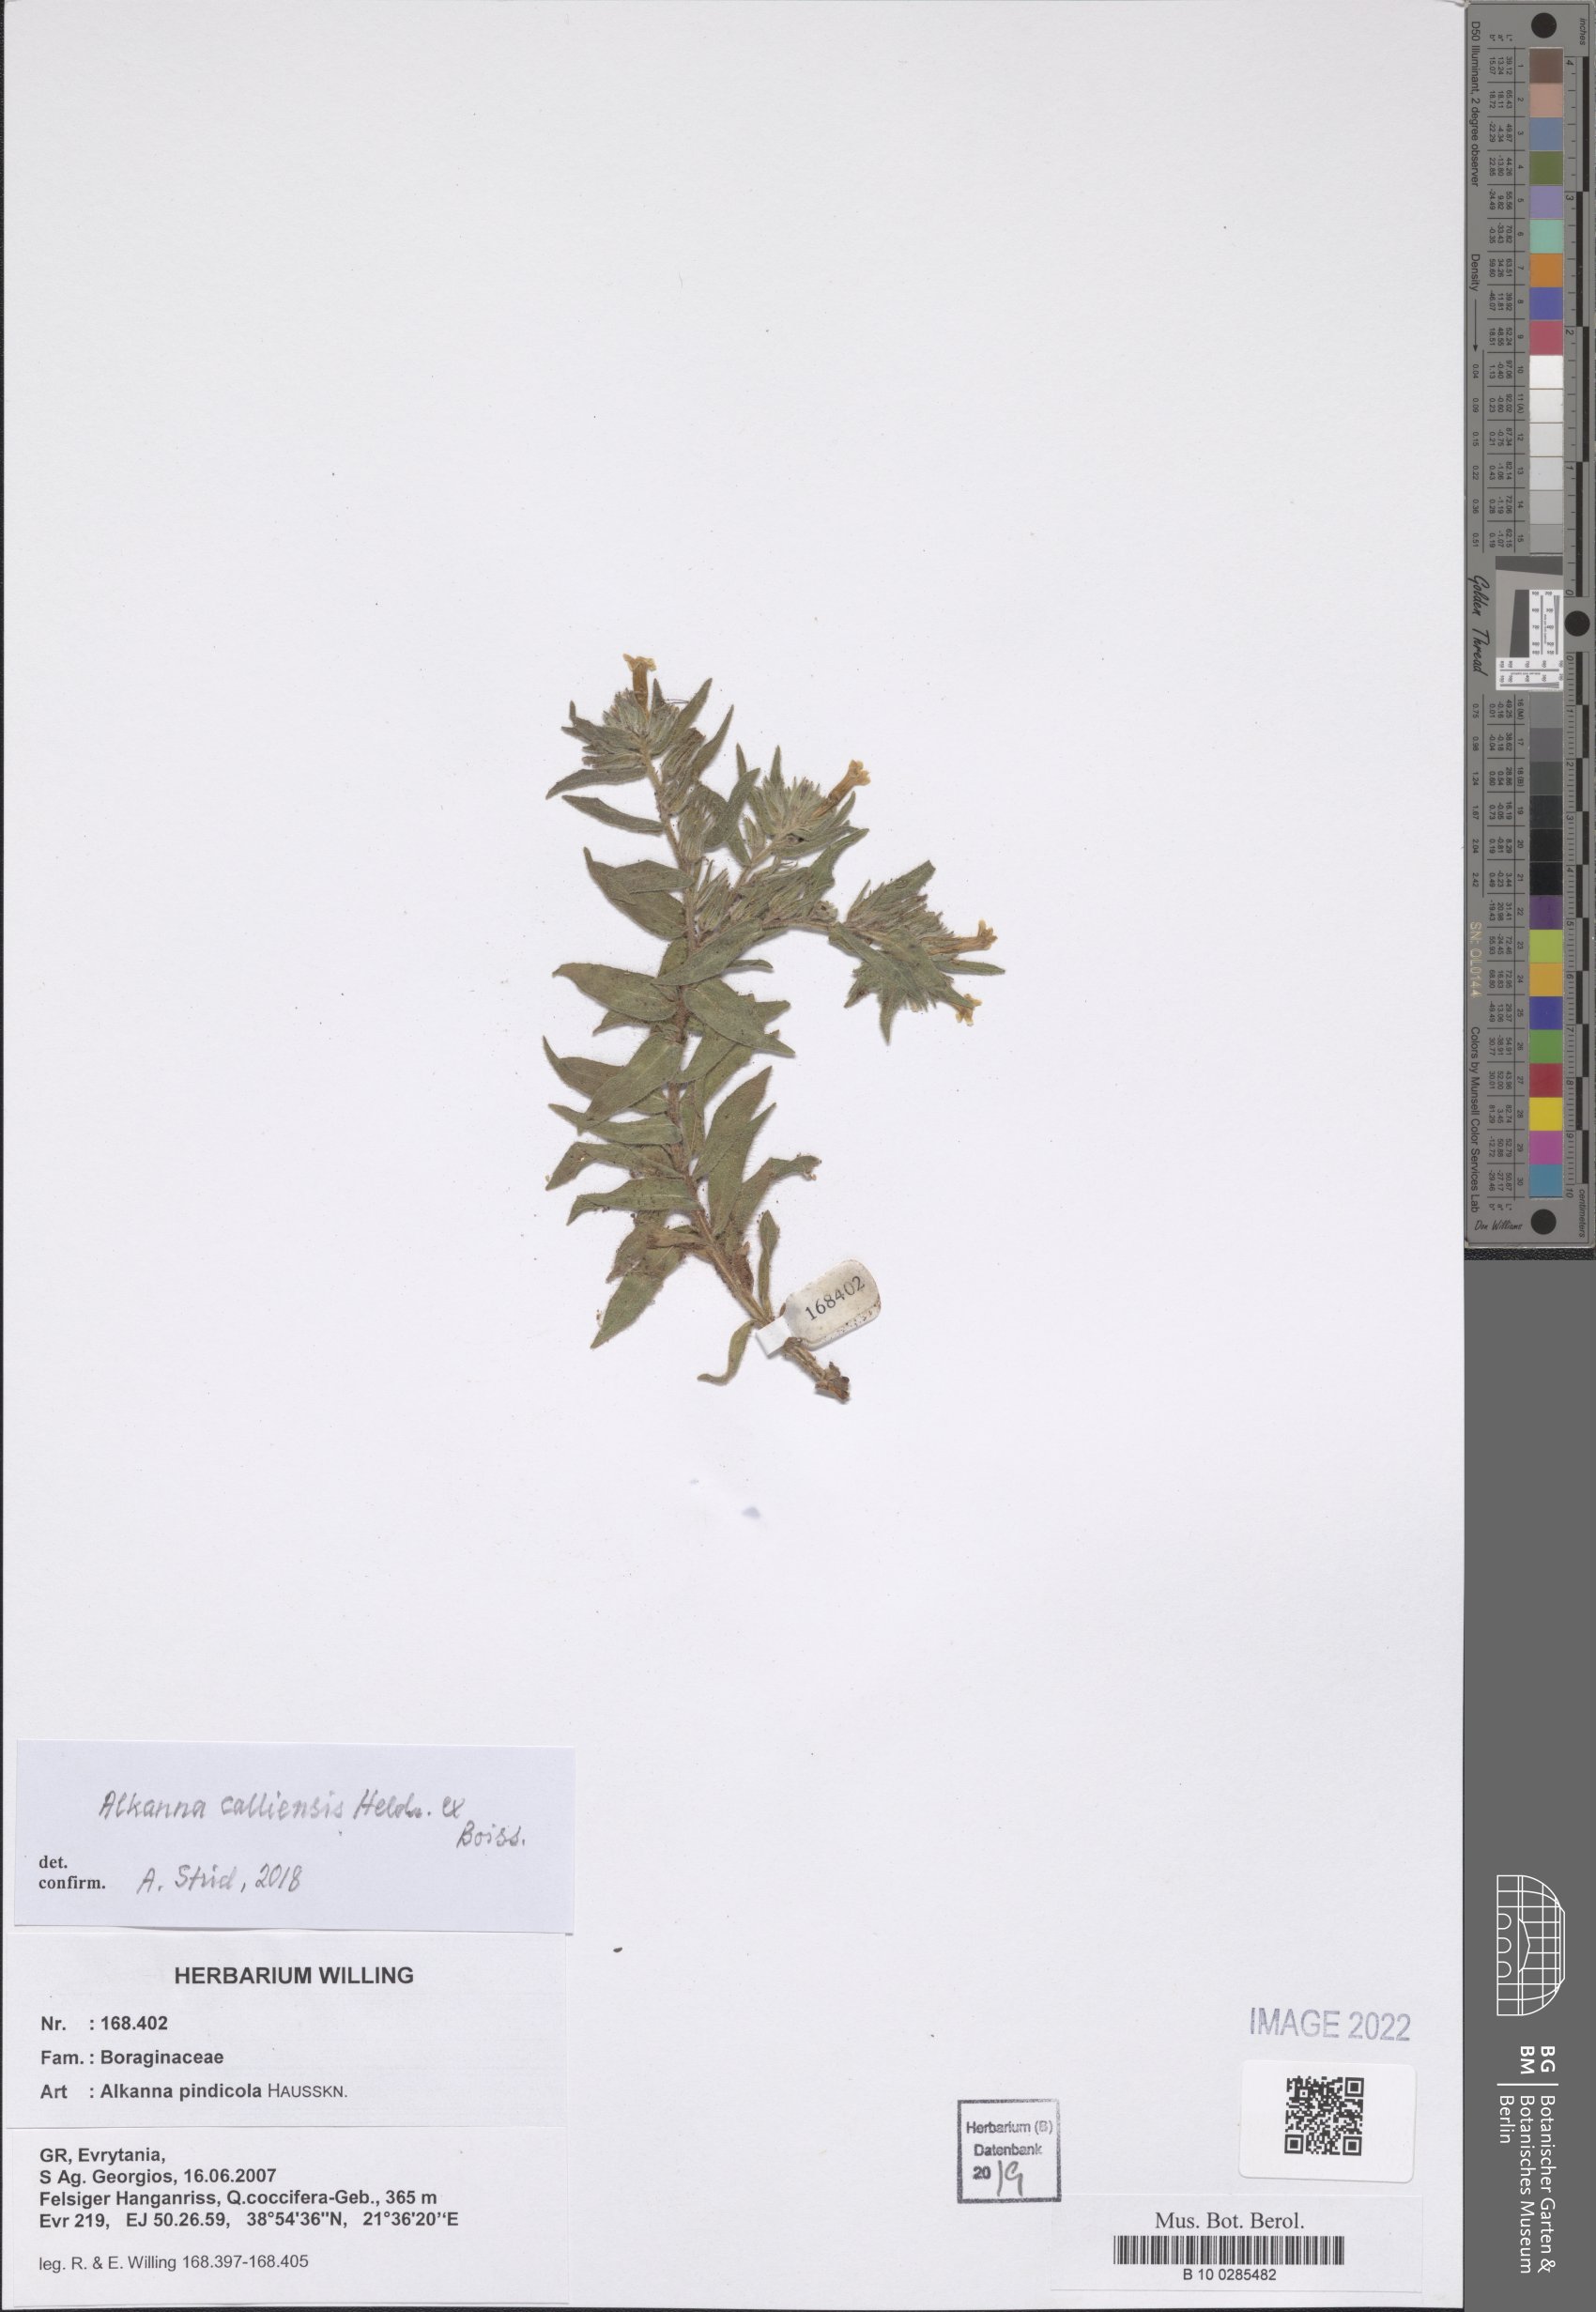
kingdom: Plantae
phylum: Tracheophyta
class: Magnoliopsida
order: Boraginales
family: Boraginaceae
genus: Alkanna
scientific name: Alkanna calliensis
